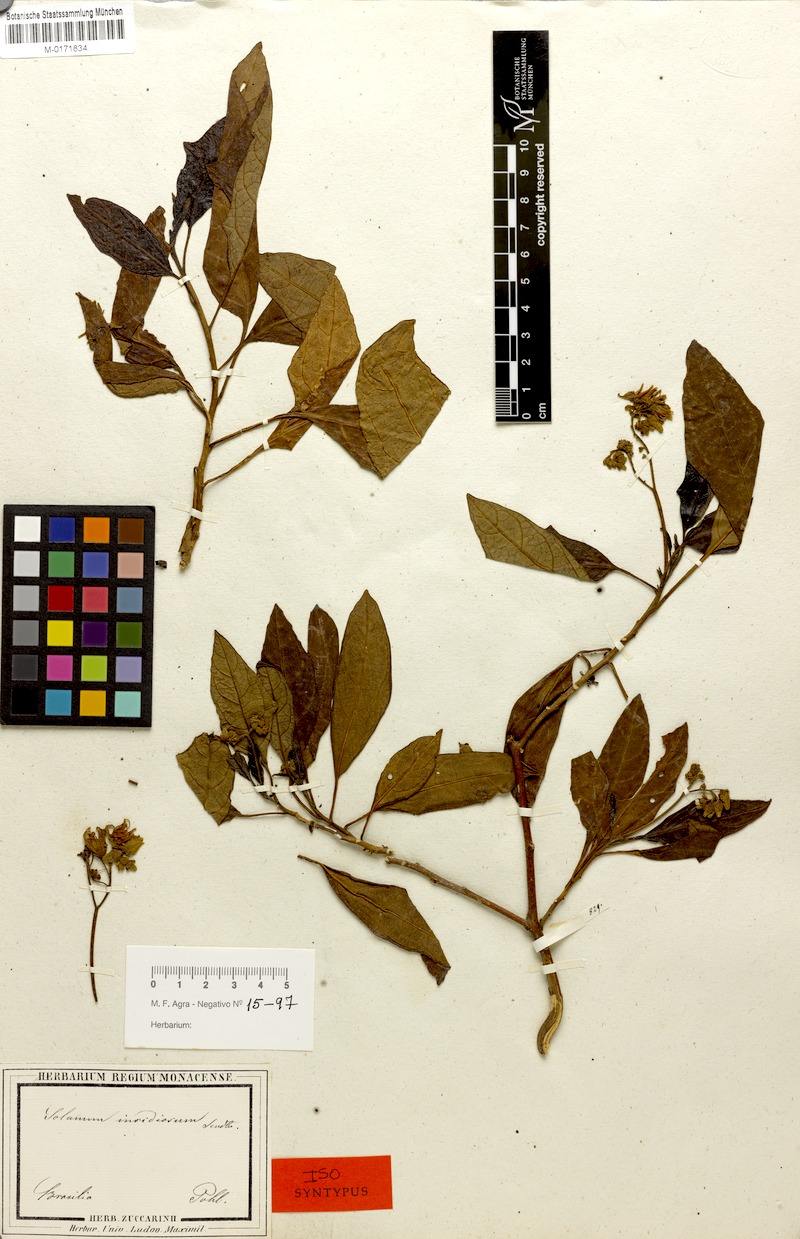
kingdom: Plantae
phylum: Tracheophyta
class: Magnoliopsida
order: Solanales
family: Solanaceae
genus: Solanum
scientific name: Solanum insidiosum
